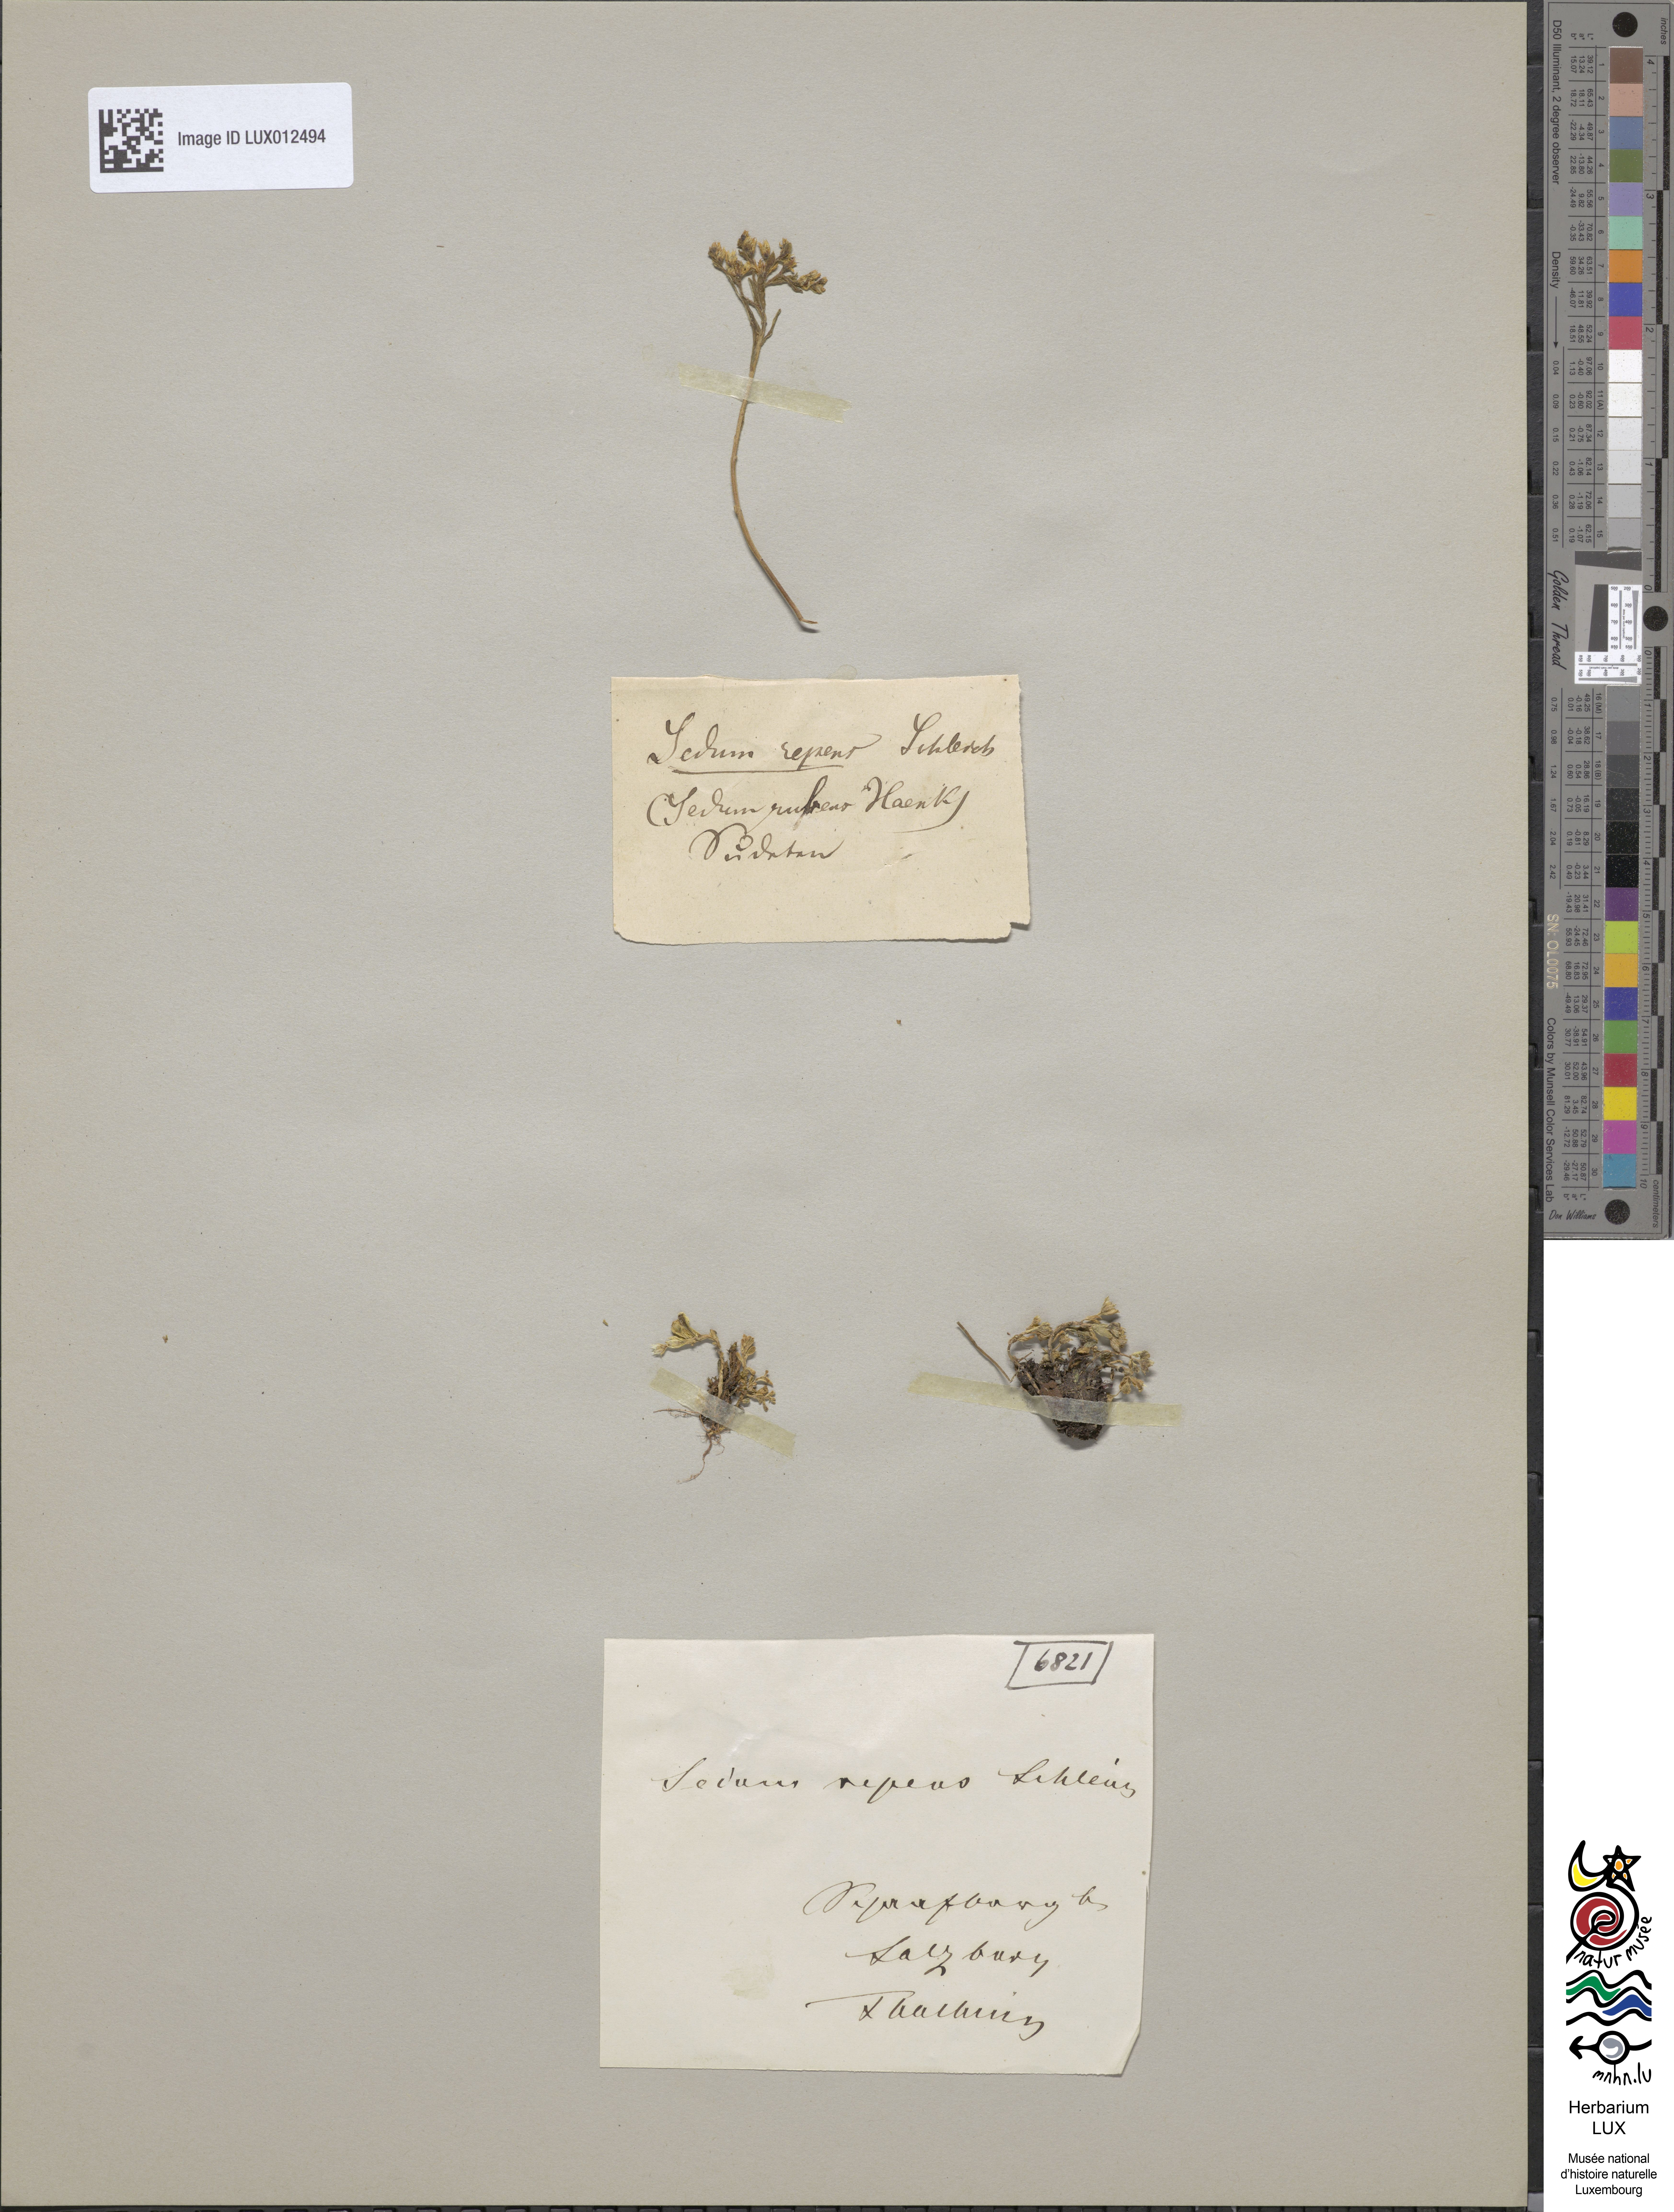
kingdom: Plantae
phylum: Tracheophyta
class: Magnoliopsida
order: Saxifragales
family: Crassulaceae
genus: Sedum
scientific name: Sedum alpestre
